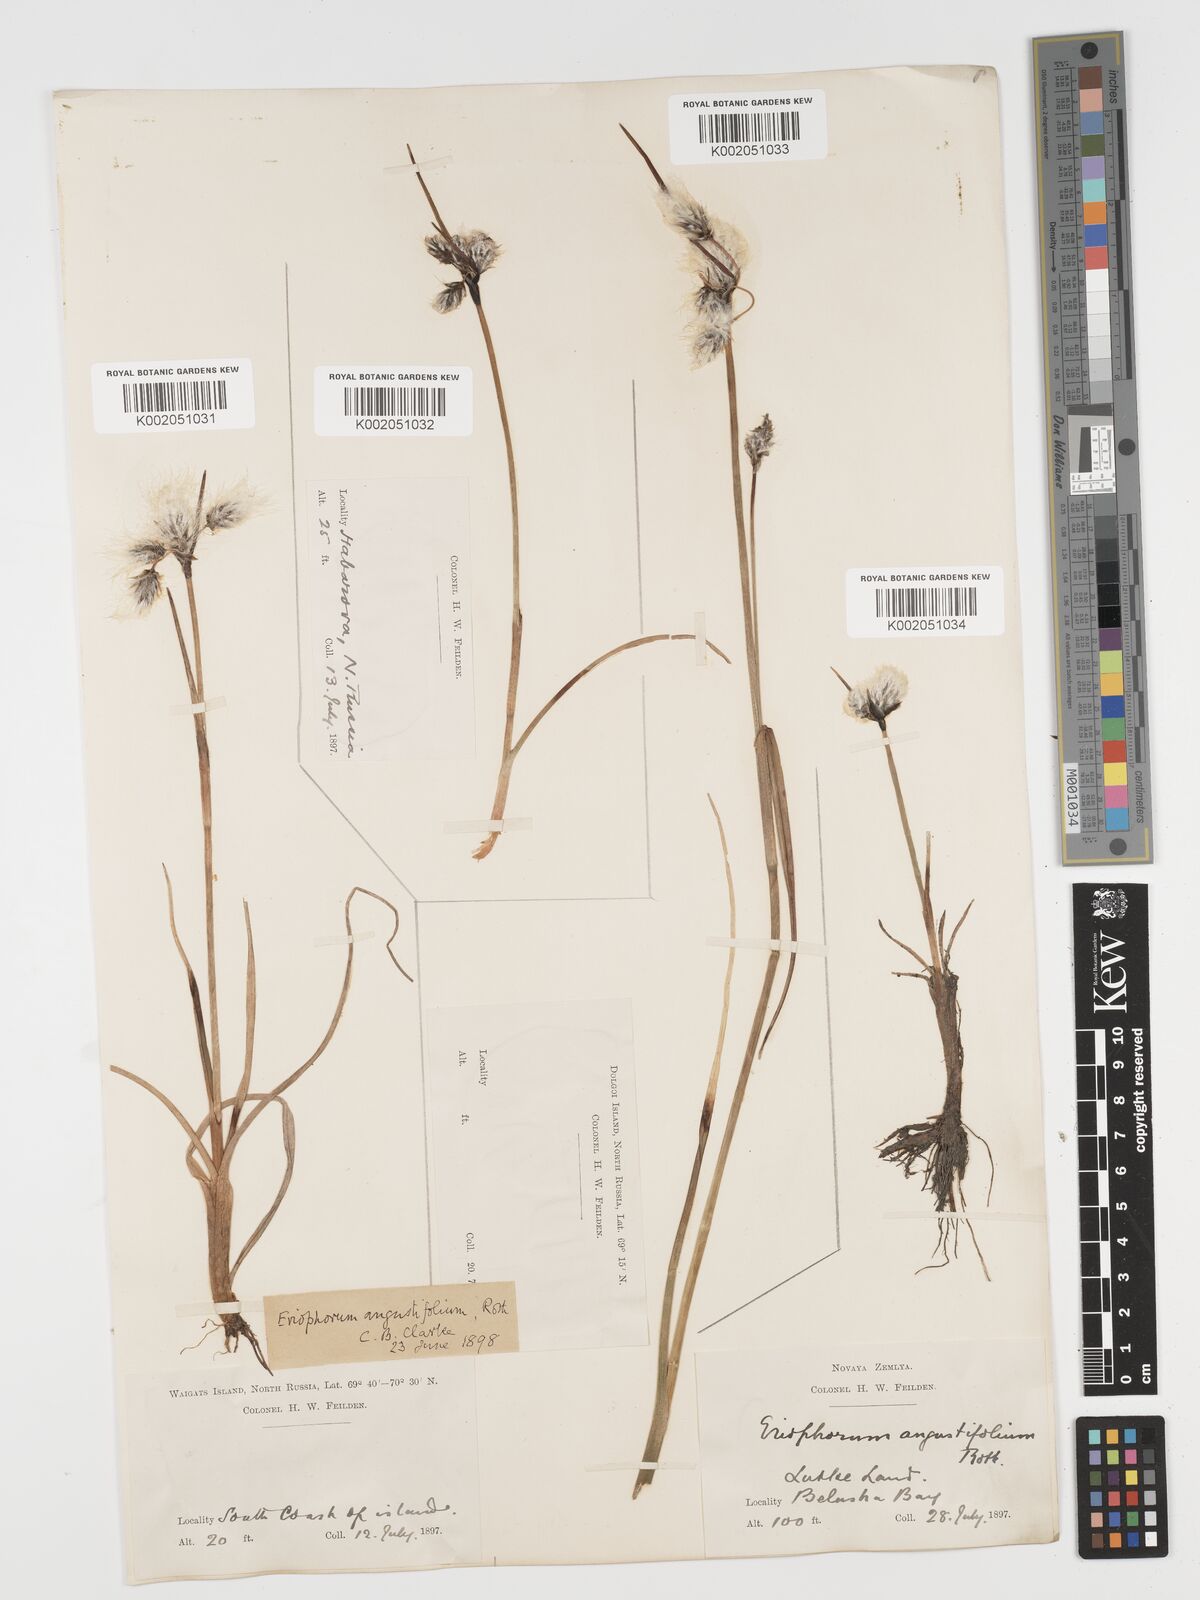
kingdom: Plantae
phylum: Tracheophyta
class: Liliopsida
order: Poales
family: Cyperaceae
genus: Eriophorum
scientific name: Eriophorum angustifolium
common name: Common cottongrass
